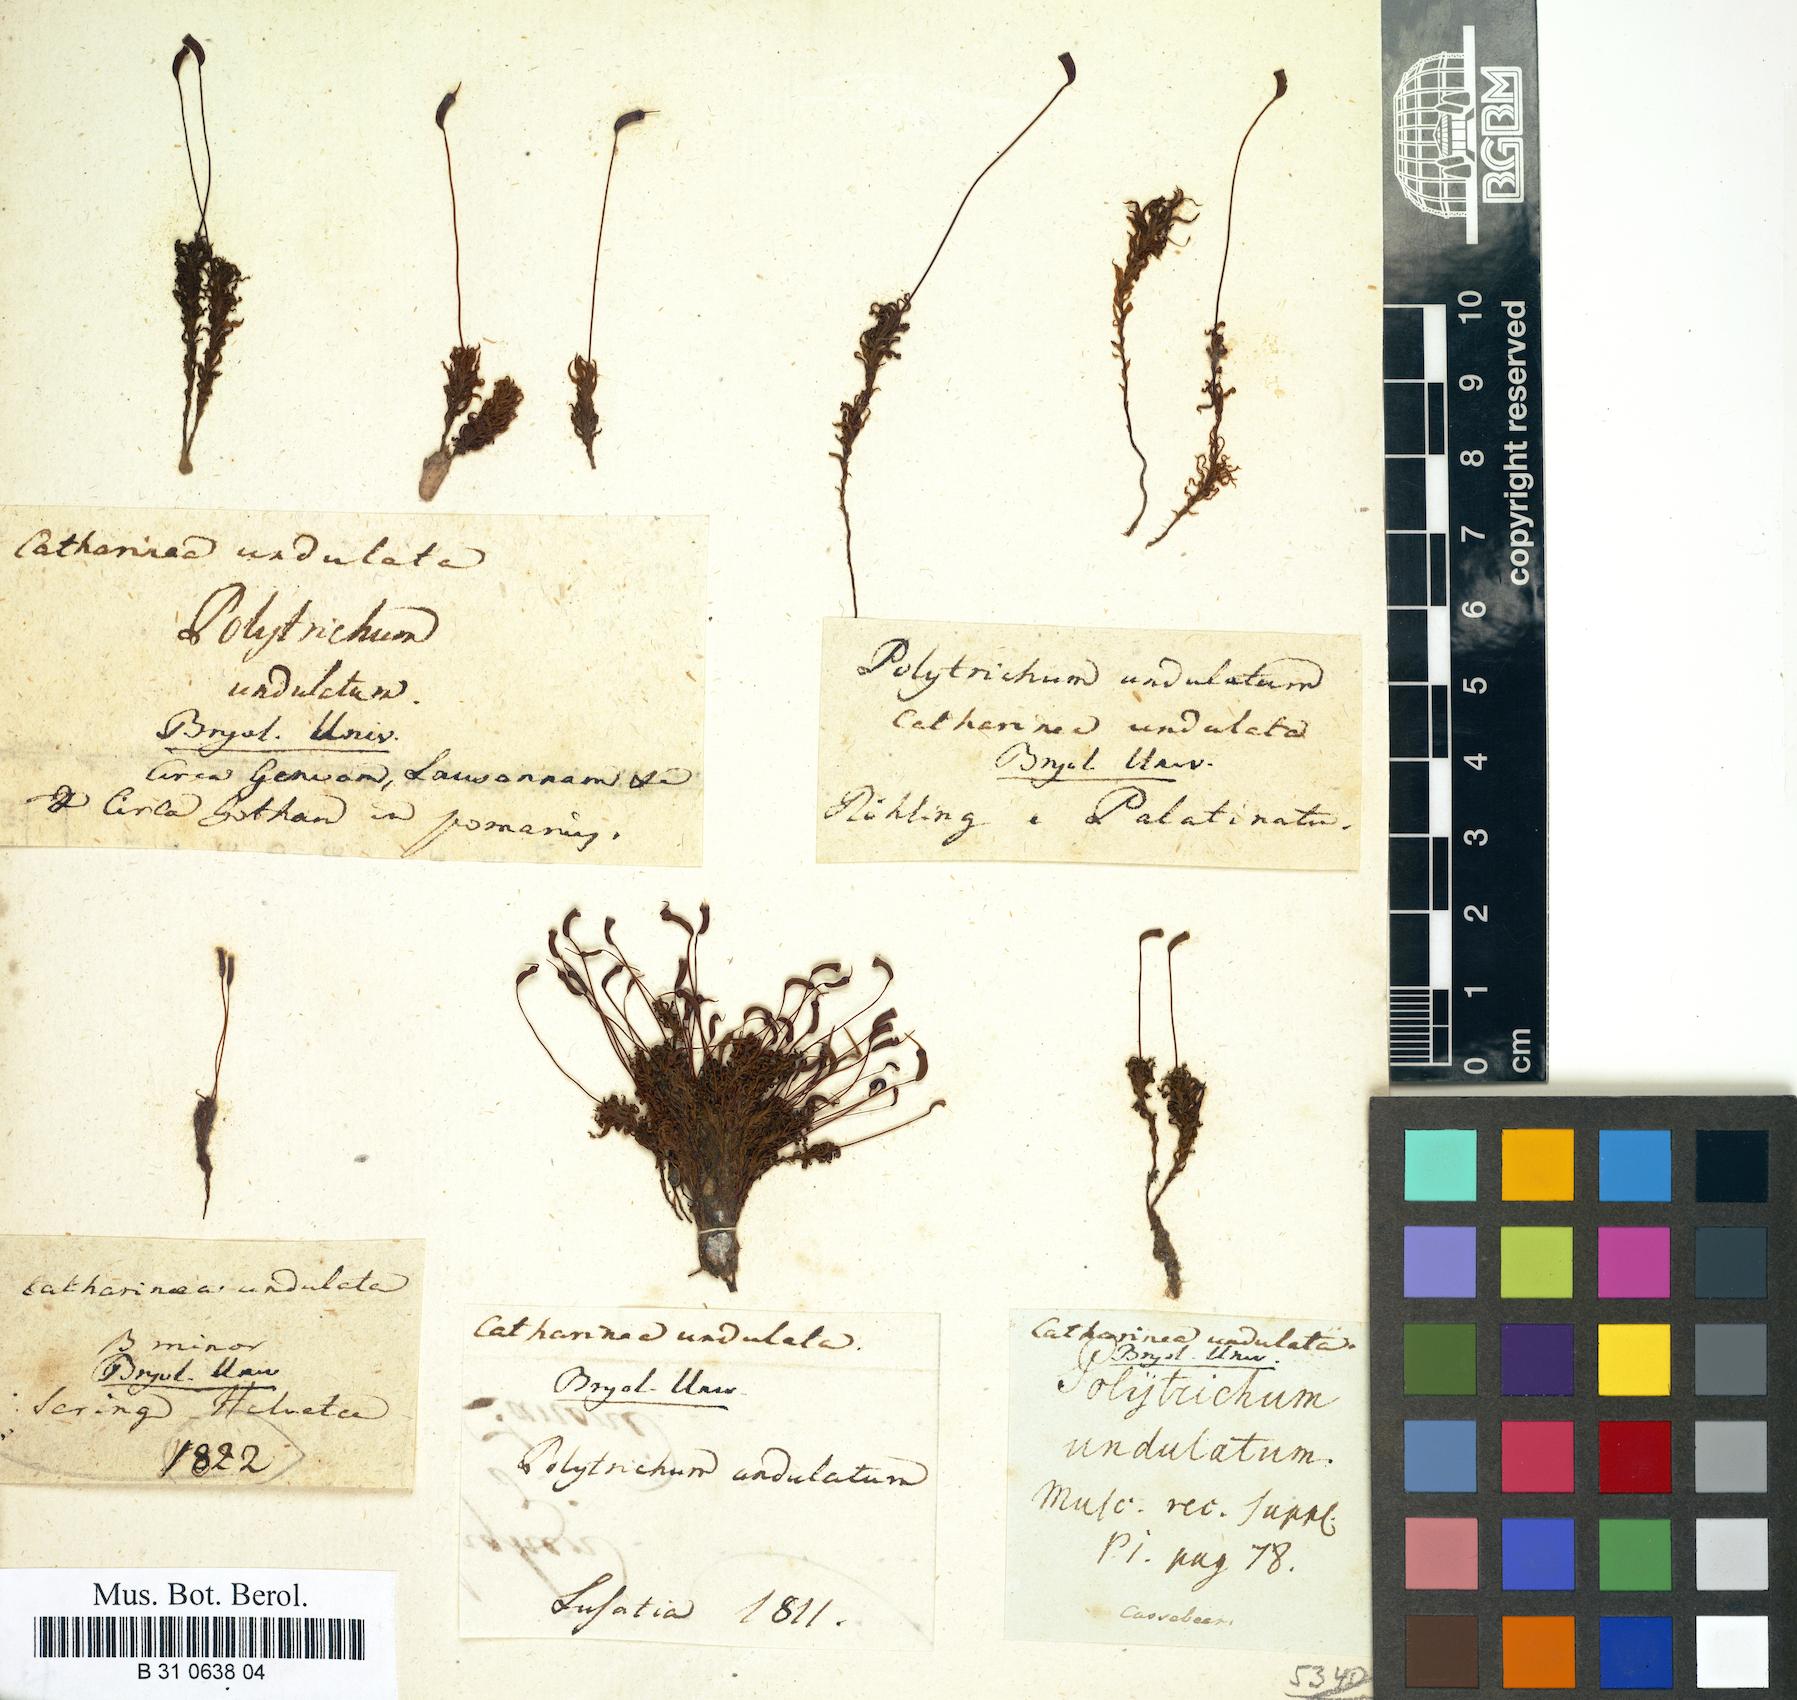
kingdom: Plantae
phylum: Bryophyta
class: Polytrichopsida
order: Polytrichales
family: Polytrichaceae
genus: Atrichum
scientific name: Atrichum undulatum
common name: Common smoothcap
